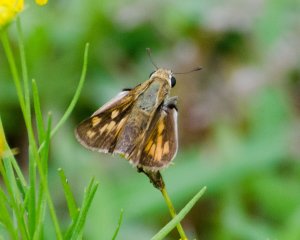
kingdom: Animalia
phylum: Arthropoda
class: Insecta
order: Lepidoptera
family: Hesperiidae
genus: Polites
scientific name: Polites coras
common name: Peck's Skipper
